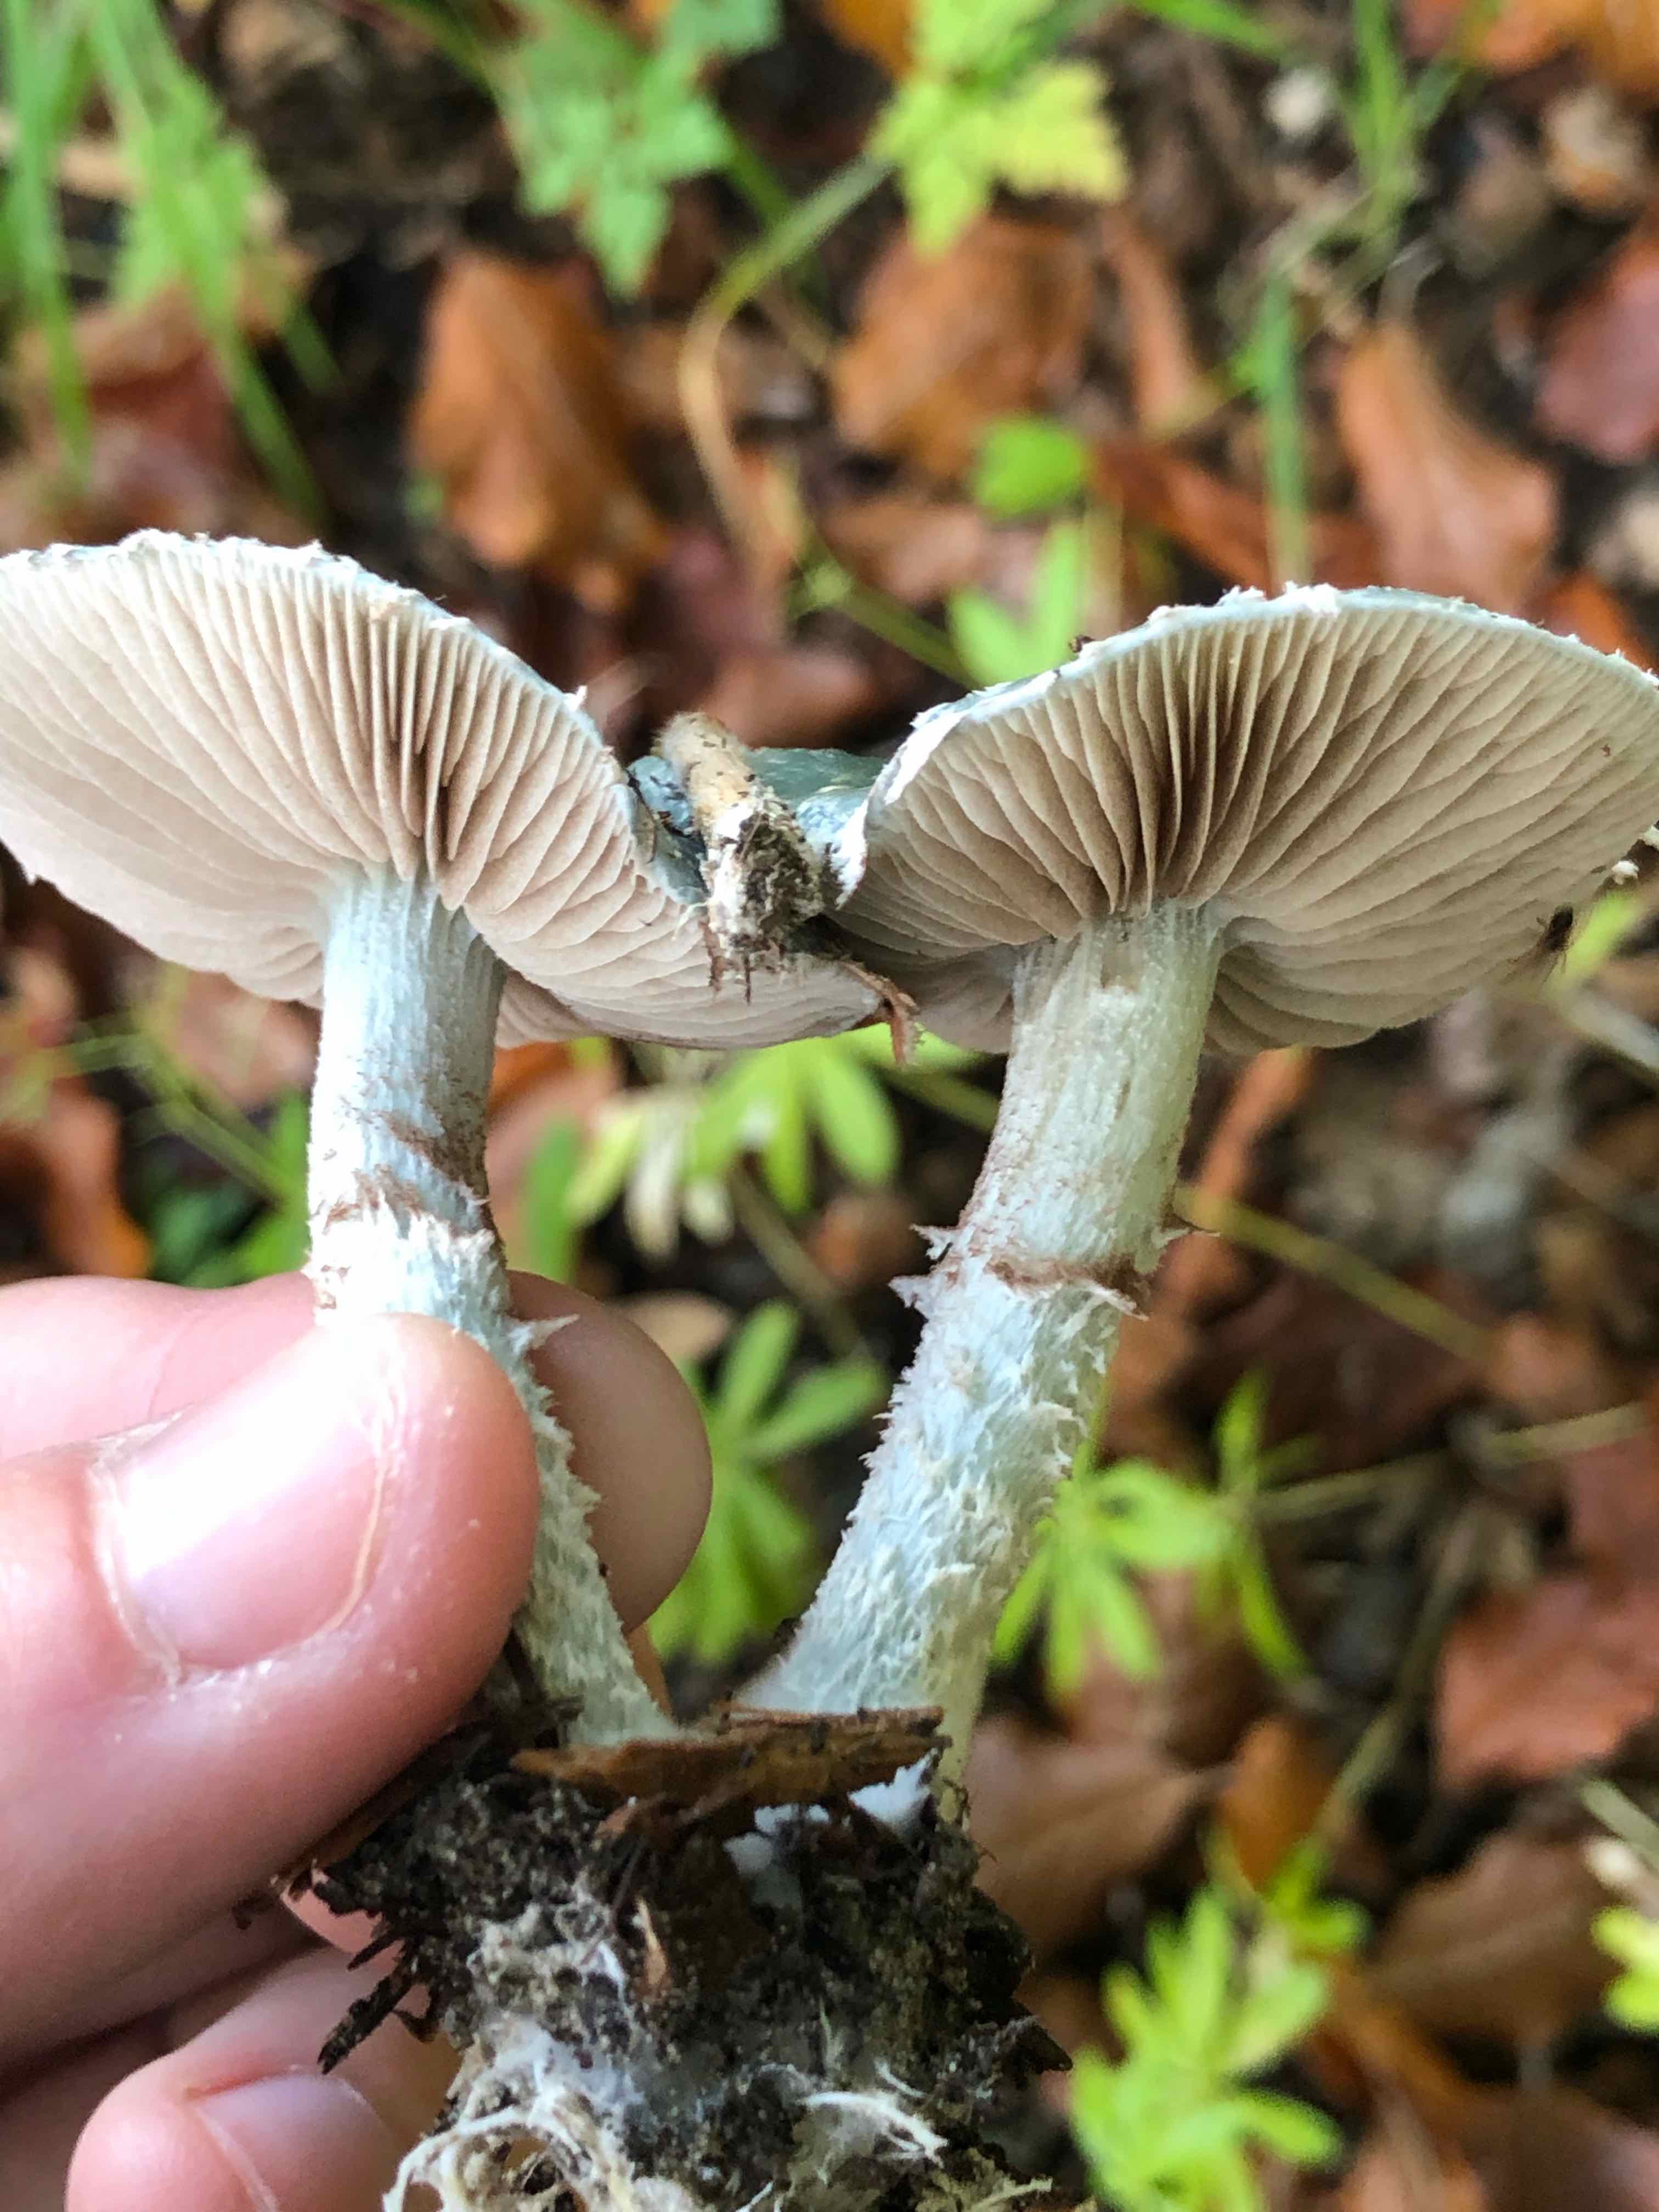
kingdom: Fungi
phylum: Basidiomycota
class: Agaricomycetes
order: Agaricales
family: Strophariaceae
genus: Stropharia
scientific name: Stropharia cyanea
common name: blågrøn bredblad
